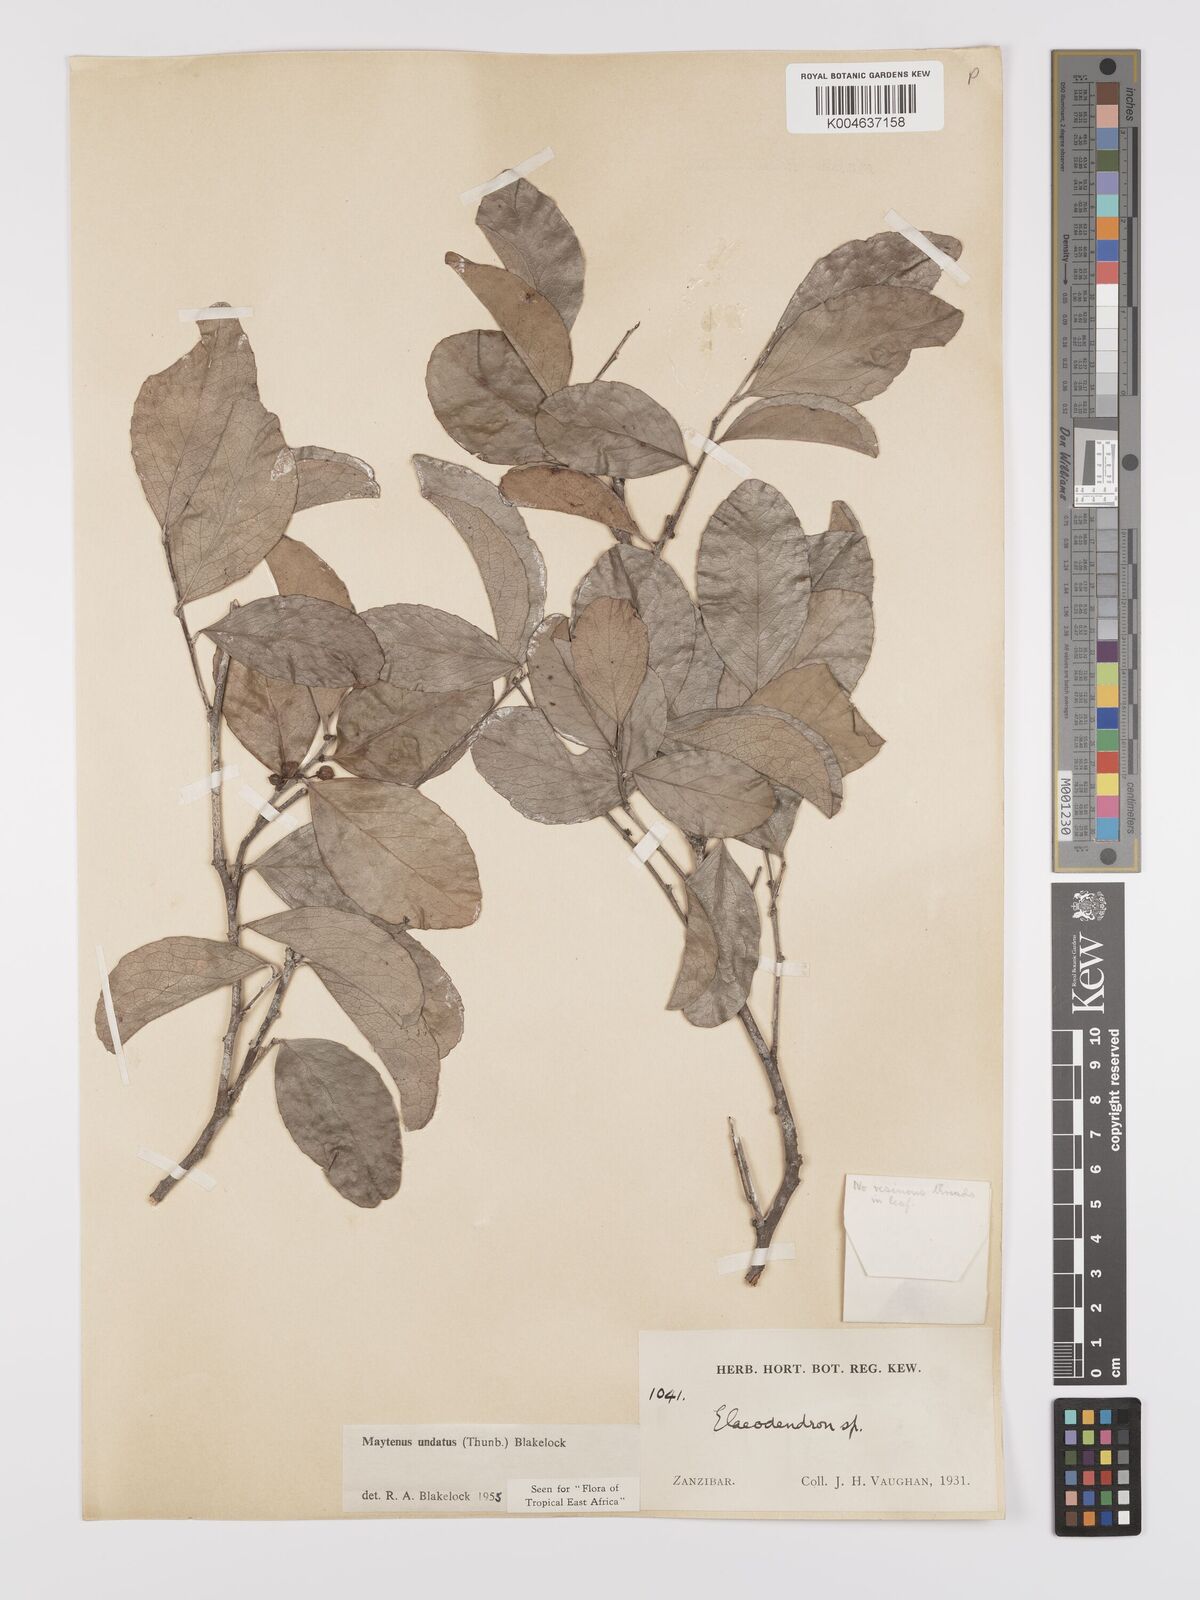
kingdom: Plantae
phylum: Tracheophyta
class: Magnoliopsida
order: Celastrales
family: Celastraceae
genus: Gymnosporia
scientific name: Gymnosporia undata
